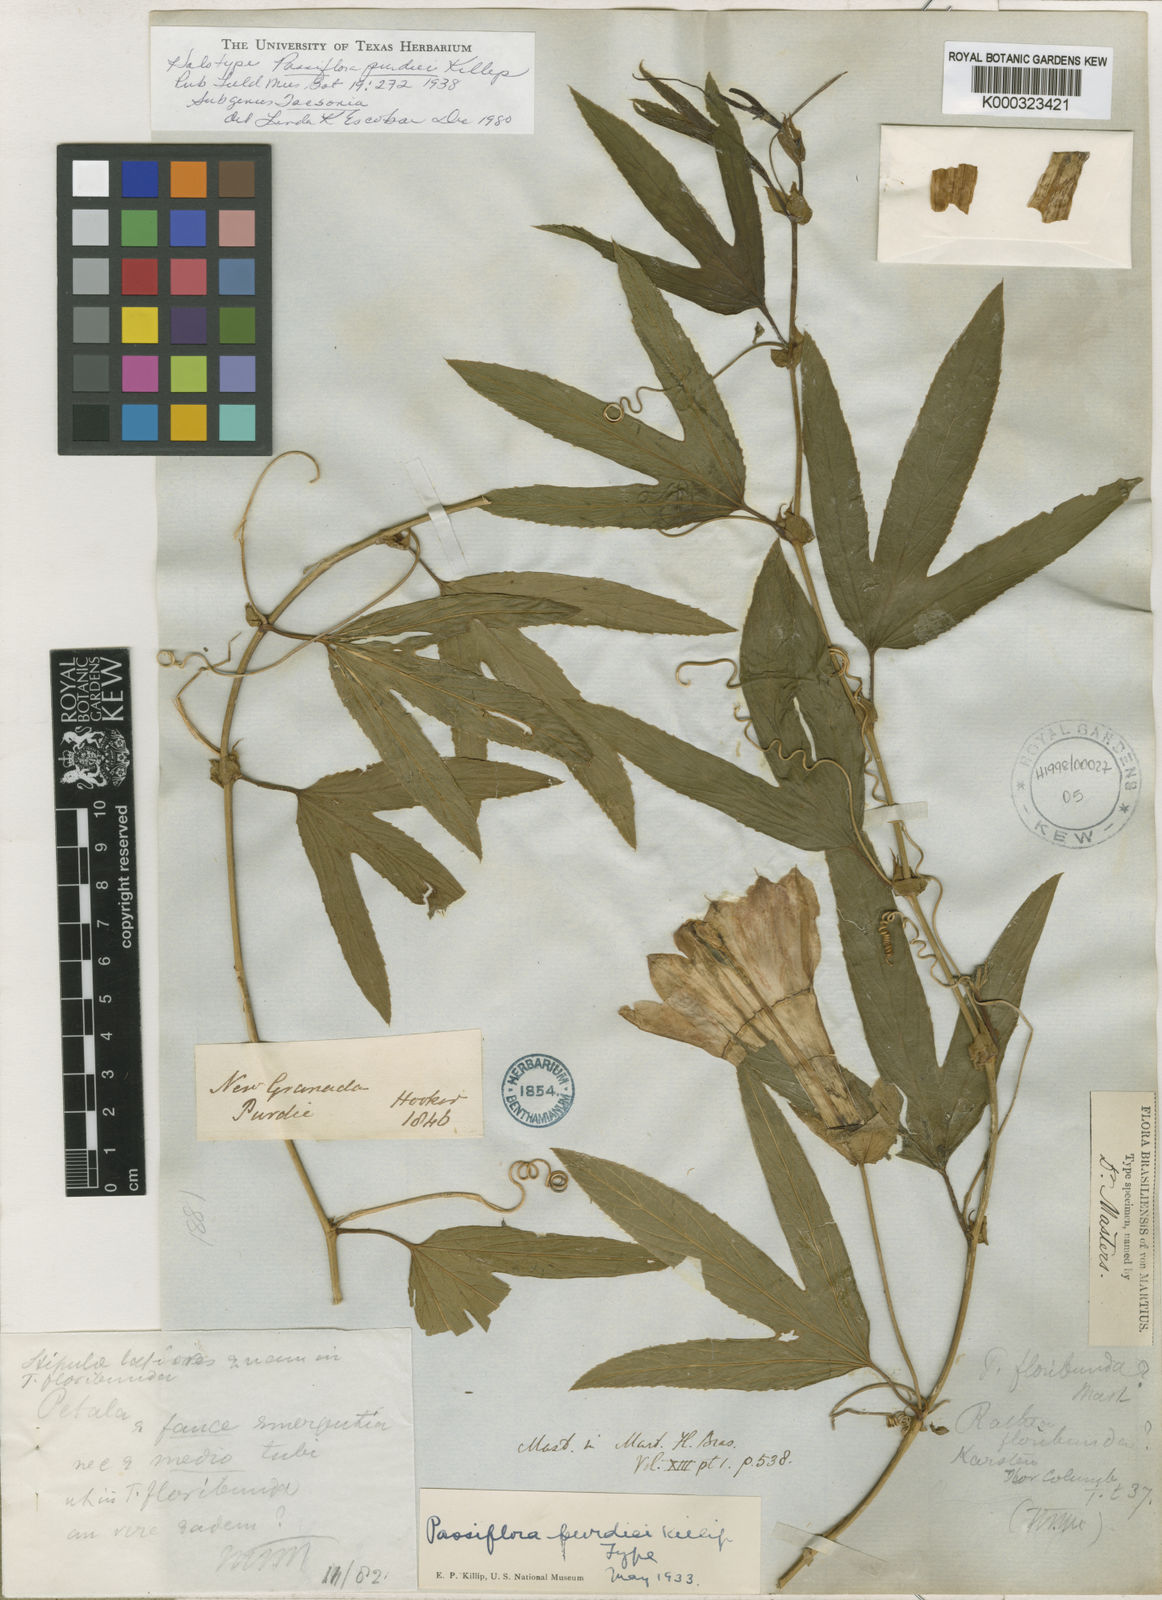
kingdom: Plantae
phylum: Tracheophyta
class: Magnoliopsida
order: Malpighiales
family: Passifloraceae
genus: Passiflora
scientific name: Passiflora purdiei
